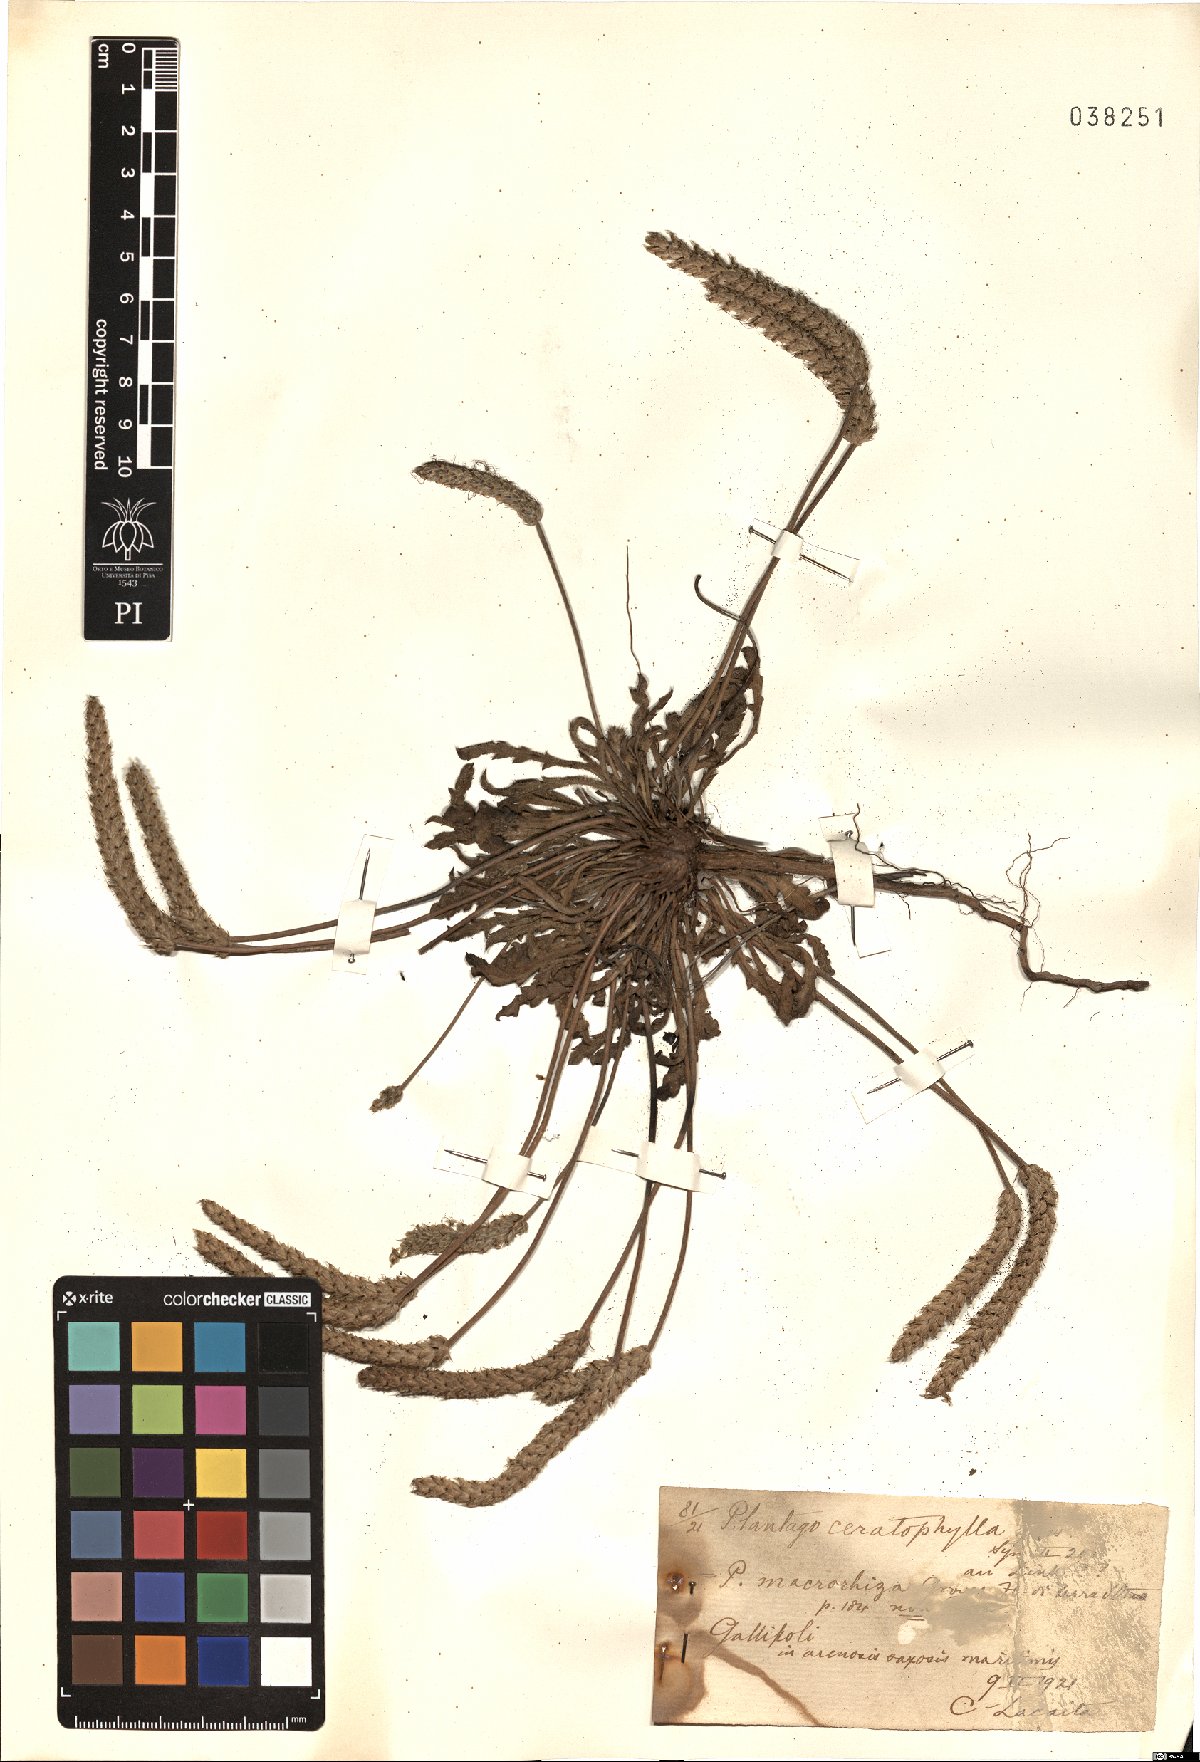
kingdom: Plantae
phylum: Tracheophyta
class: Magnoliopsida
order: Lamiales
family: Plantaginaceae
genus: Plantago
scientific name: Plantago coronopus
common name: Buck's-horn plantain
